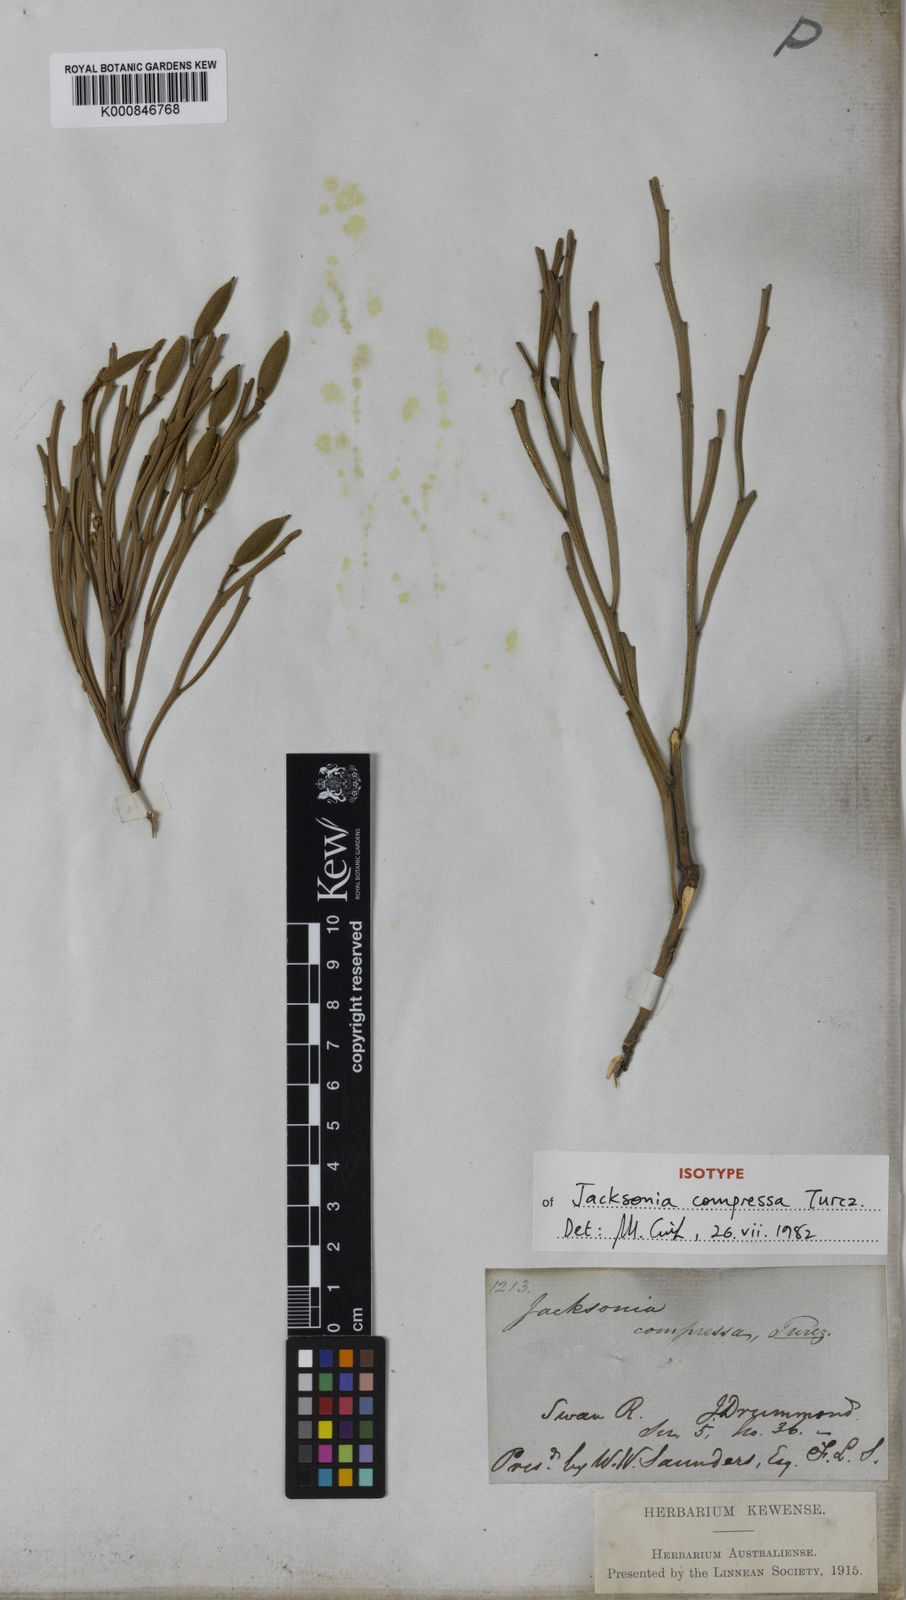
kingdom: Plantae
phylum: Tracheophyta
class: Magnoliopsida
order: Fabales
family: Fabaceae
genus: Jacksonia
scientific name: Jacksonia compressa
